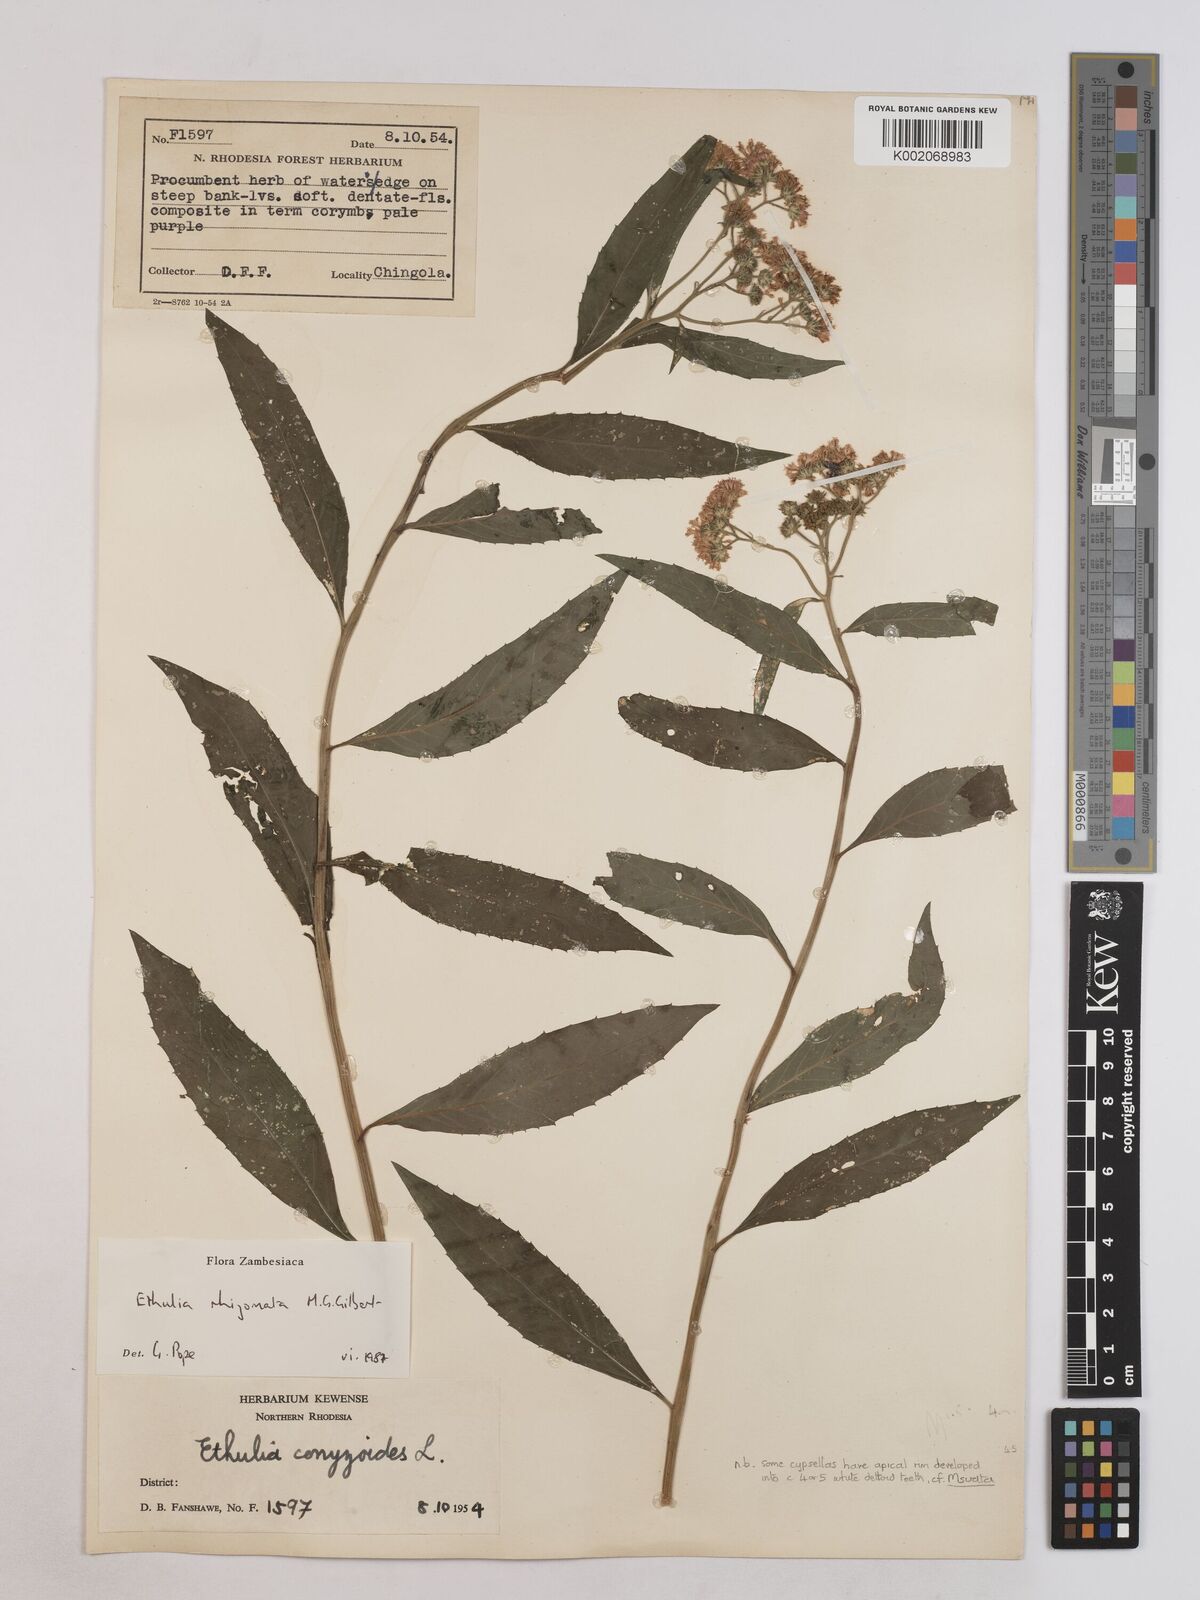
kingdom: Plantae
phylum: Tracheophyta
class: Magnoliopsida
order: Asterales
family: Asteraceae
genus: Ethulia
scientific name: Ethulia rhizomata
